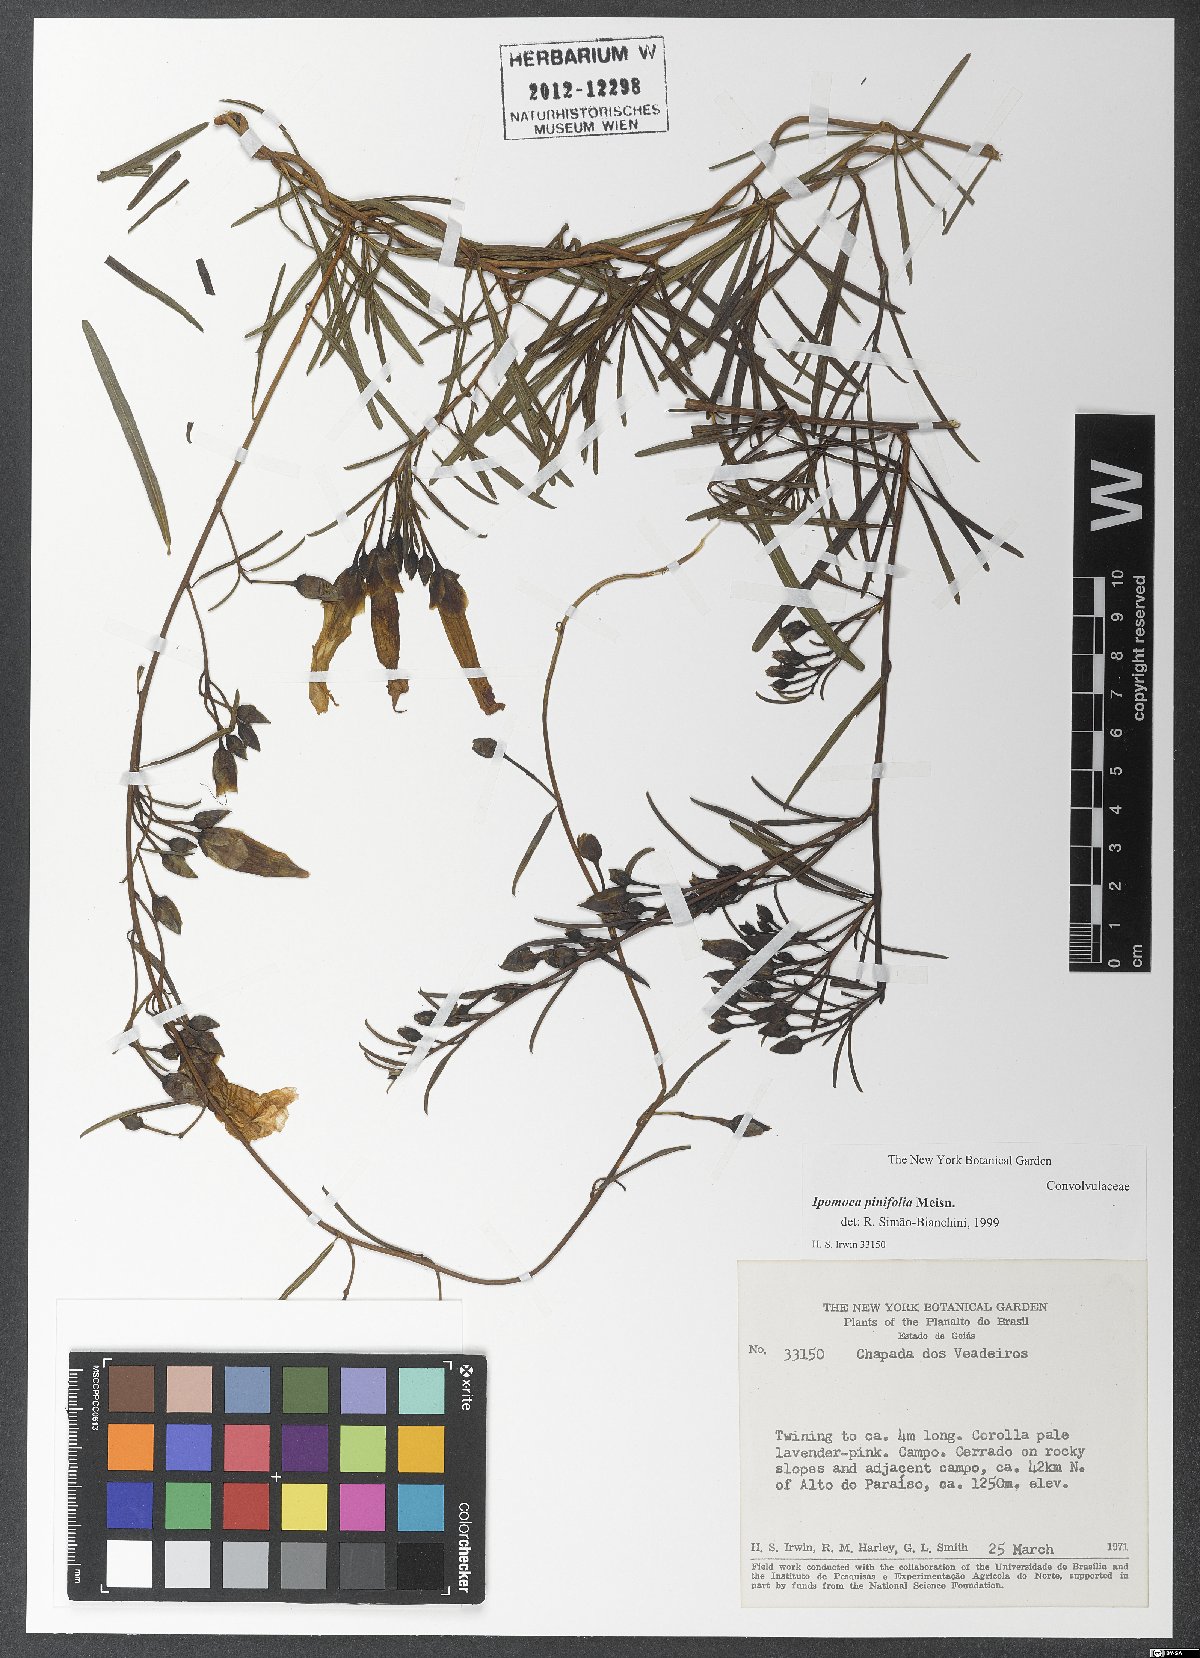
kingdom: Plantae
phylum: Tracheophyta
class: Magnoliopsida
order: Solanales
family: Convolvulaceae
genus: Ipomoea
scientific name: Ipomoea pinifolia
